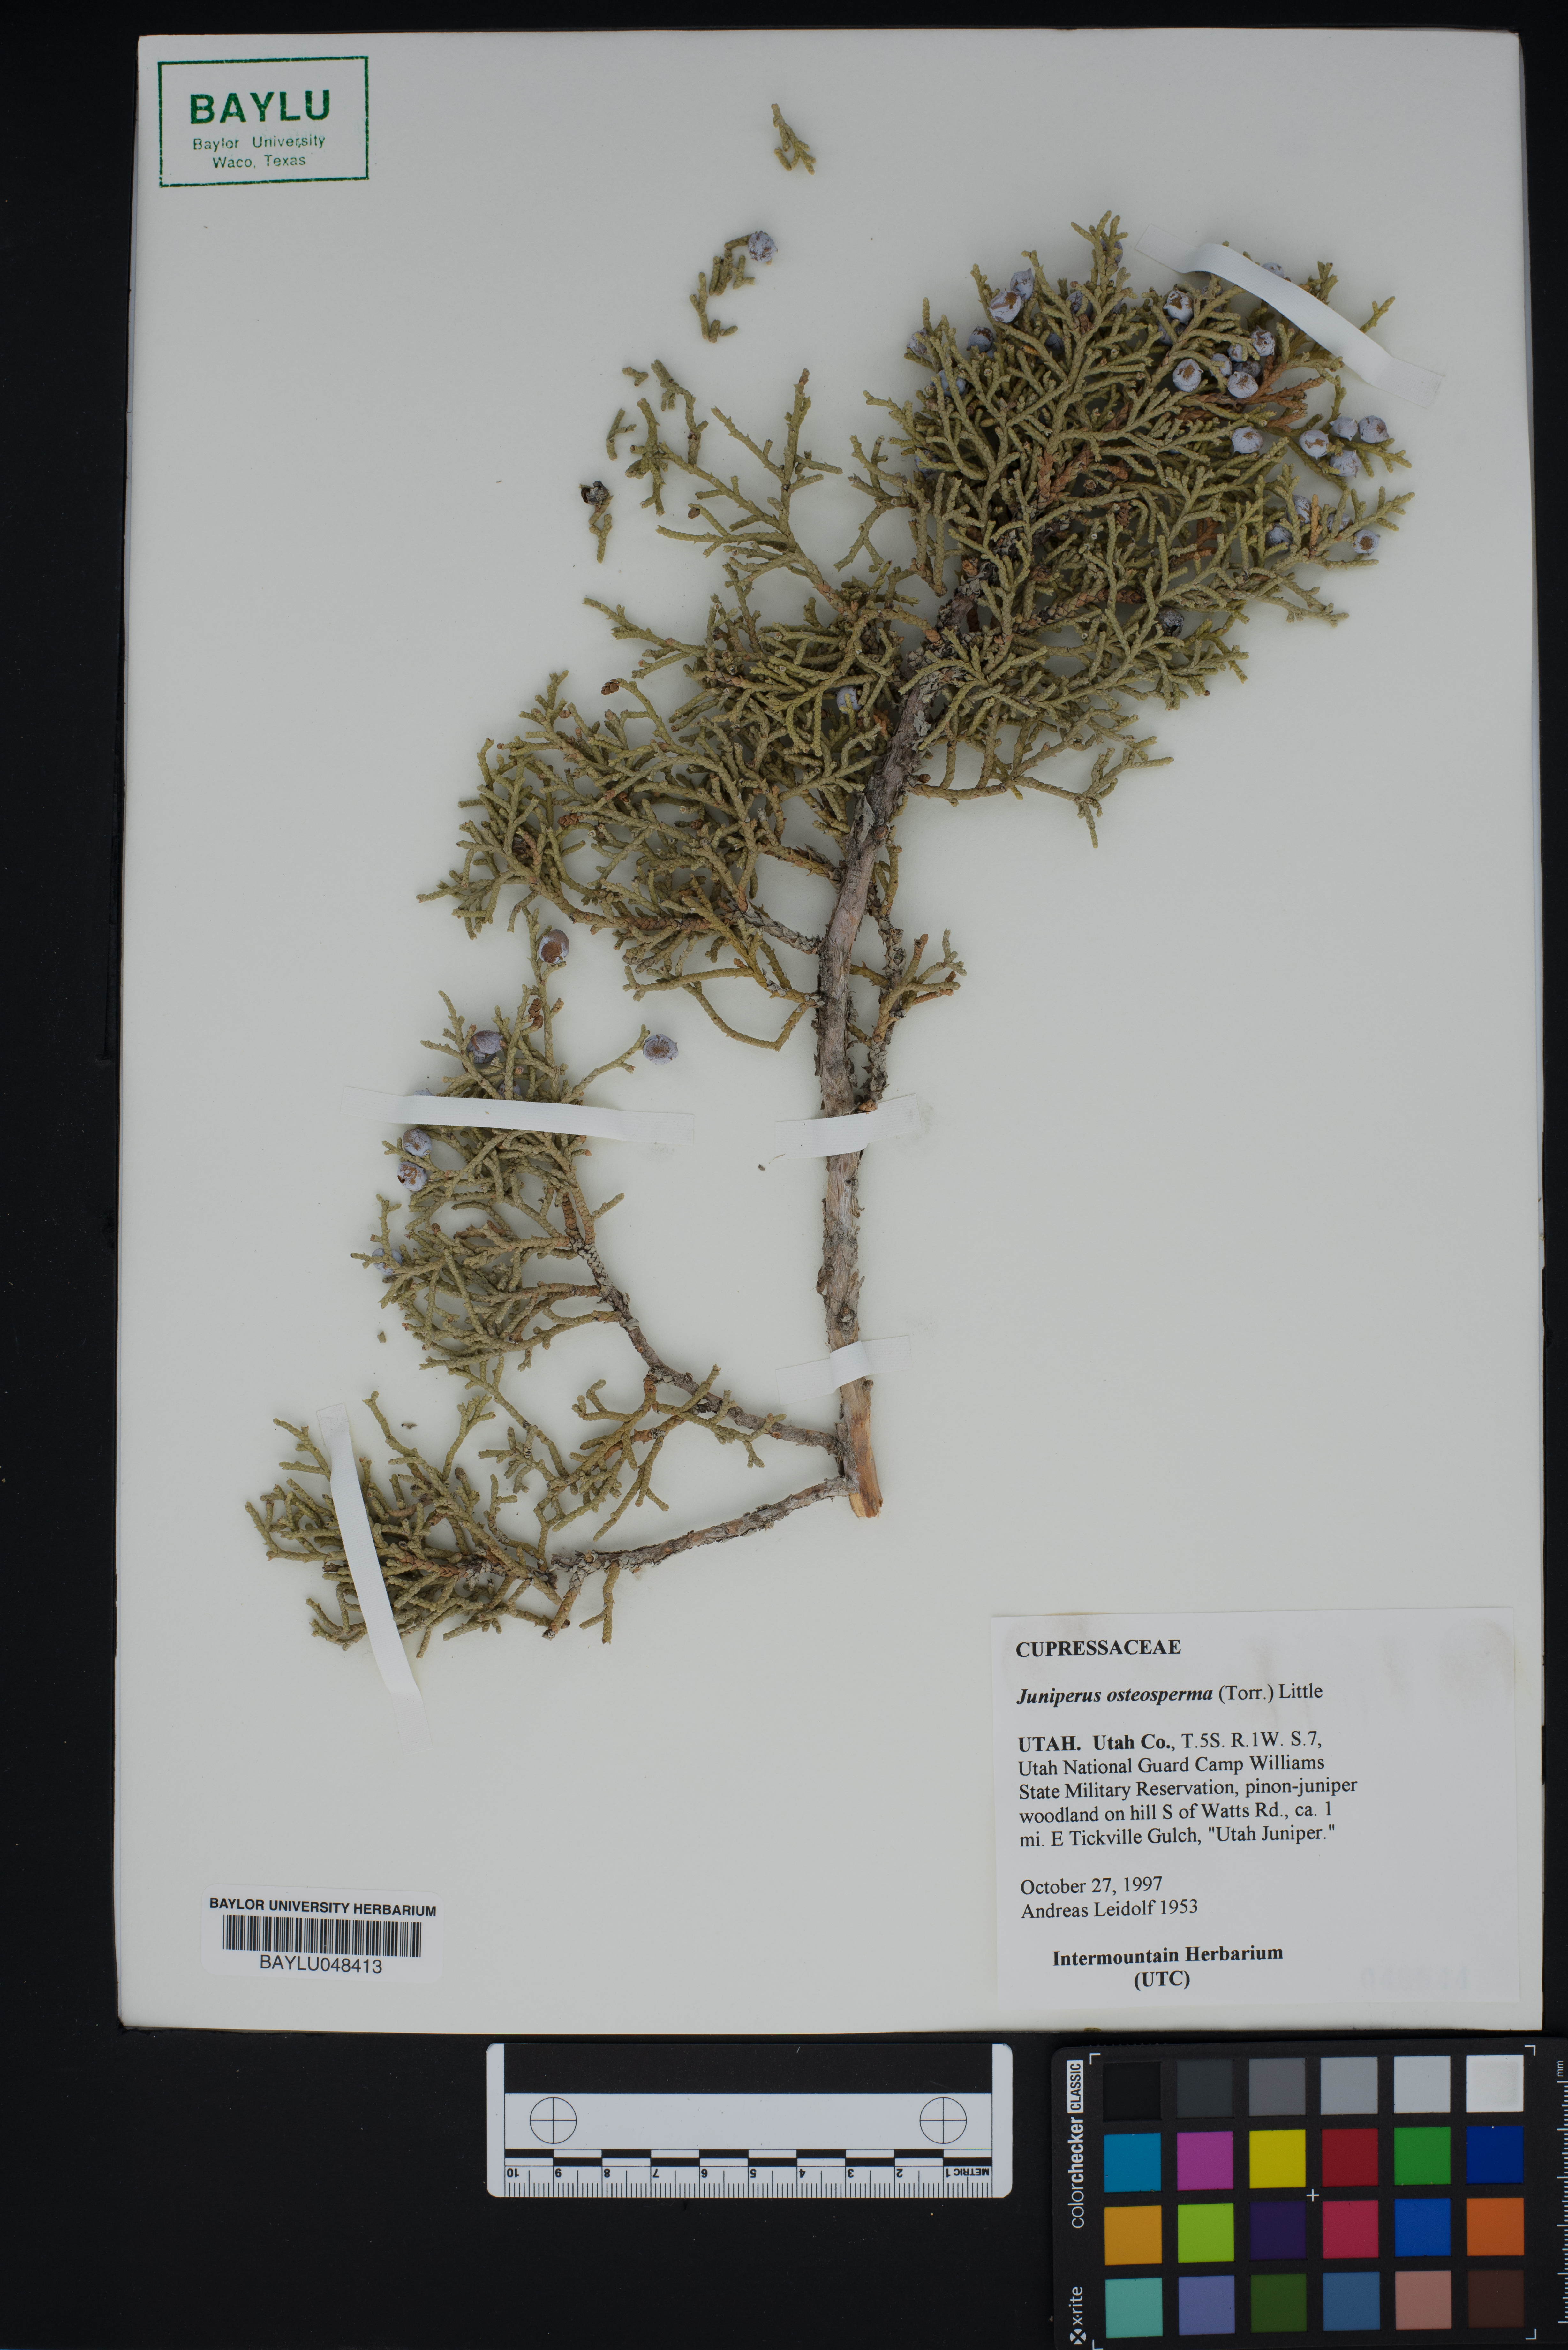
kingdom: Plantae
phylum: Tracheophyta
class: Pinopsida
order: Pinales
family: Cupressaceae
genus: Juniperus
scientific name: Juniperus osteosperma
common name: Utah juniper
